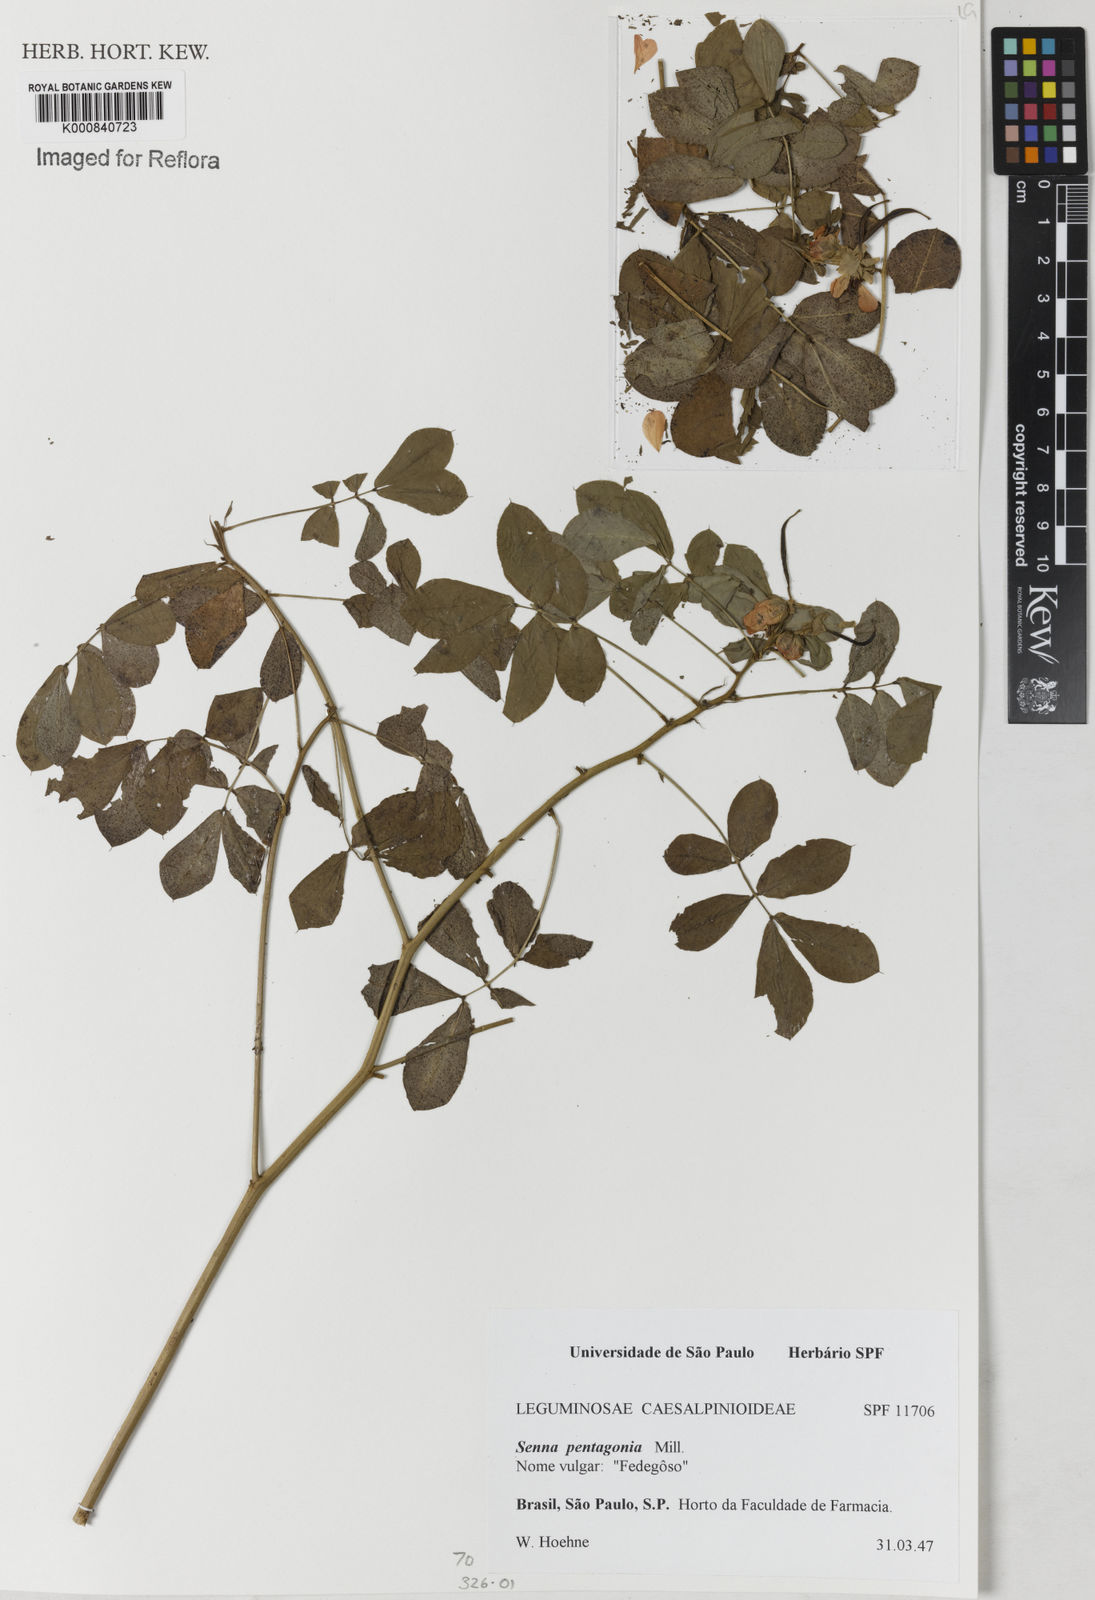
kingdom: Plantae
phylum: Tracheophyta
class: Magnoliopsida
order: Fabales
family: Fabaceae
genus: Senna
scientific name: Senna pentagonia
